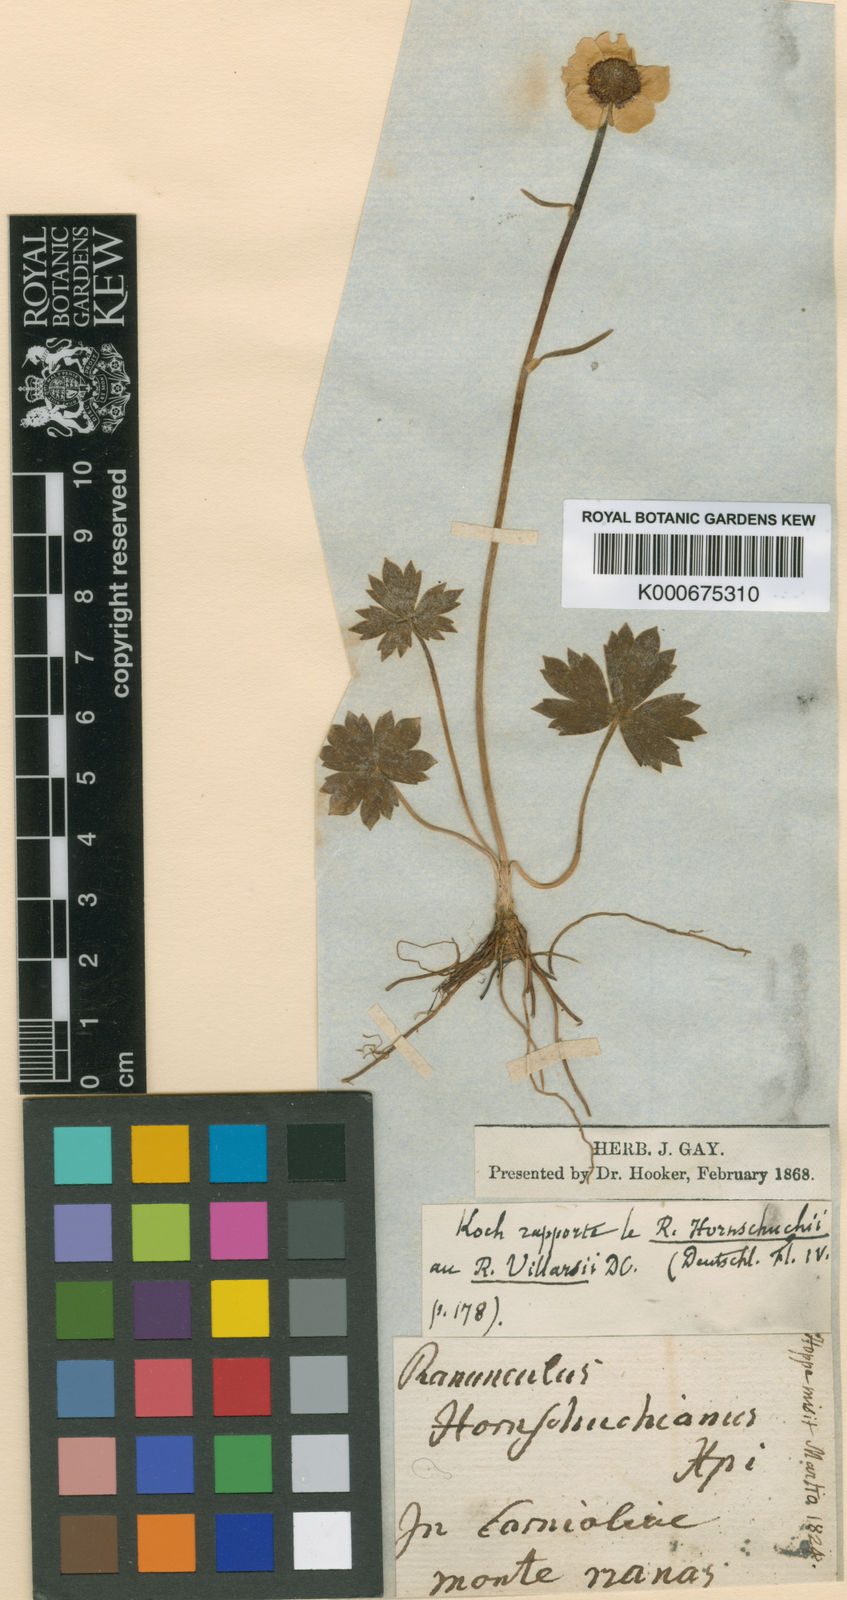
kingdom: Plantae
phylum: Tracheophyta
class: Magnoliopsida
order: Ranunculales
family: Ranunculaceae
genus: Ranunculus
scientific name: Ranunculus polyanthemos
